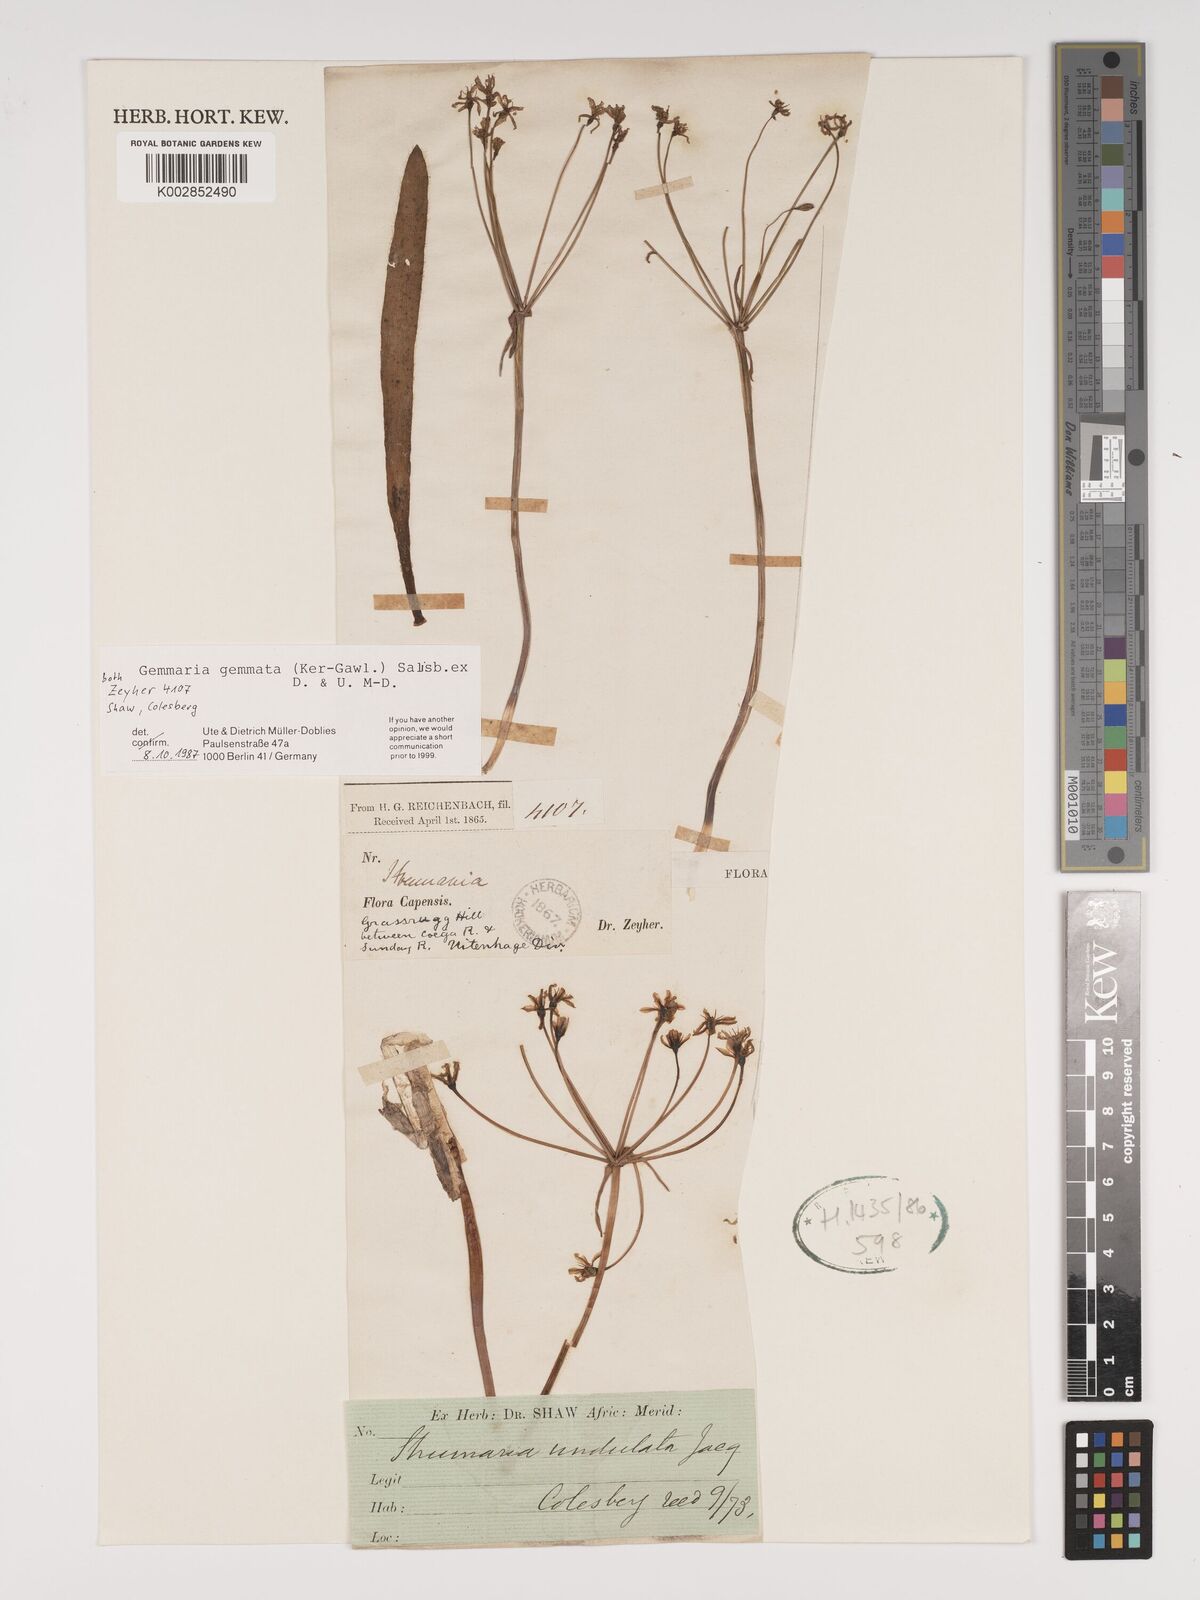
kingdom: Plantae
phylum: Tracheophyta
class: Liliopsida
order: Asparagales
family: Amaryllidaceae
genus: Strumaria
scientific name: Strumaria gemmata
